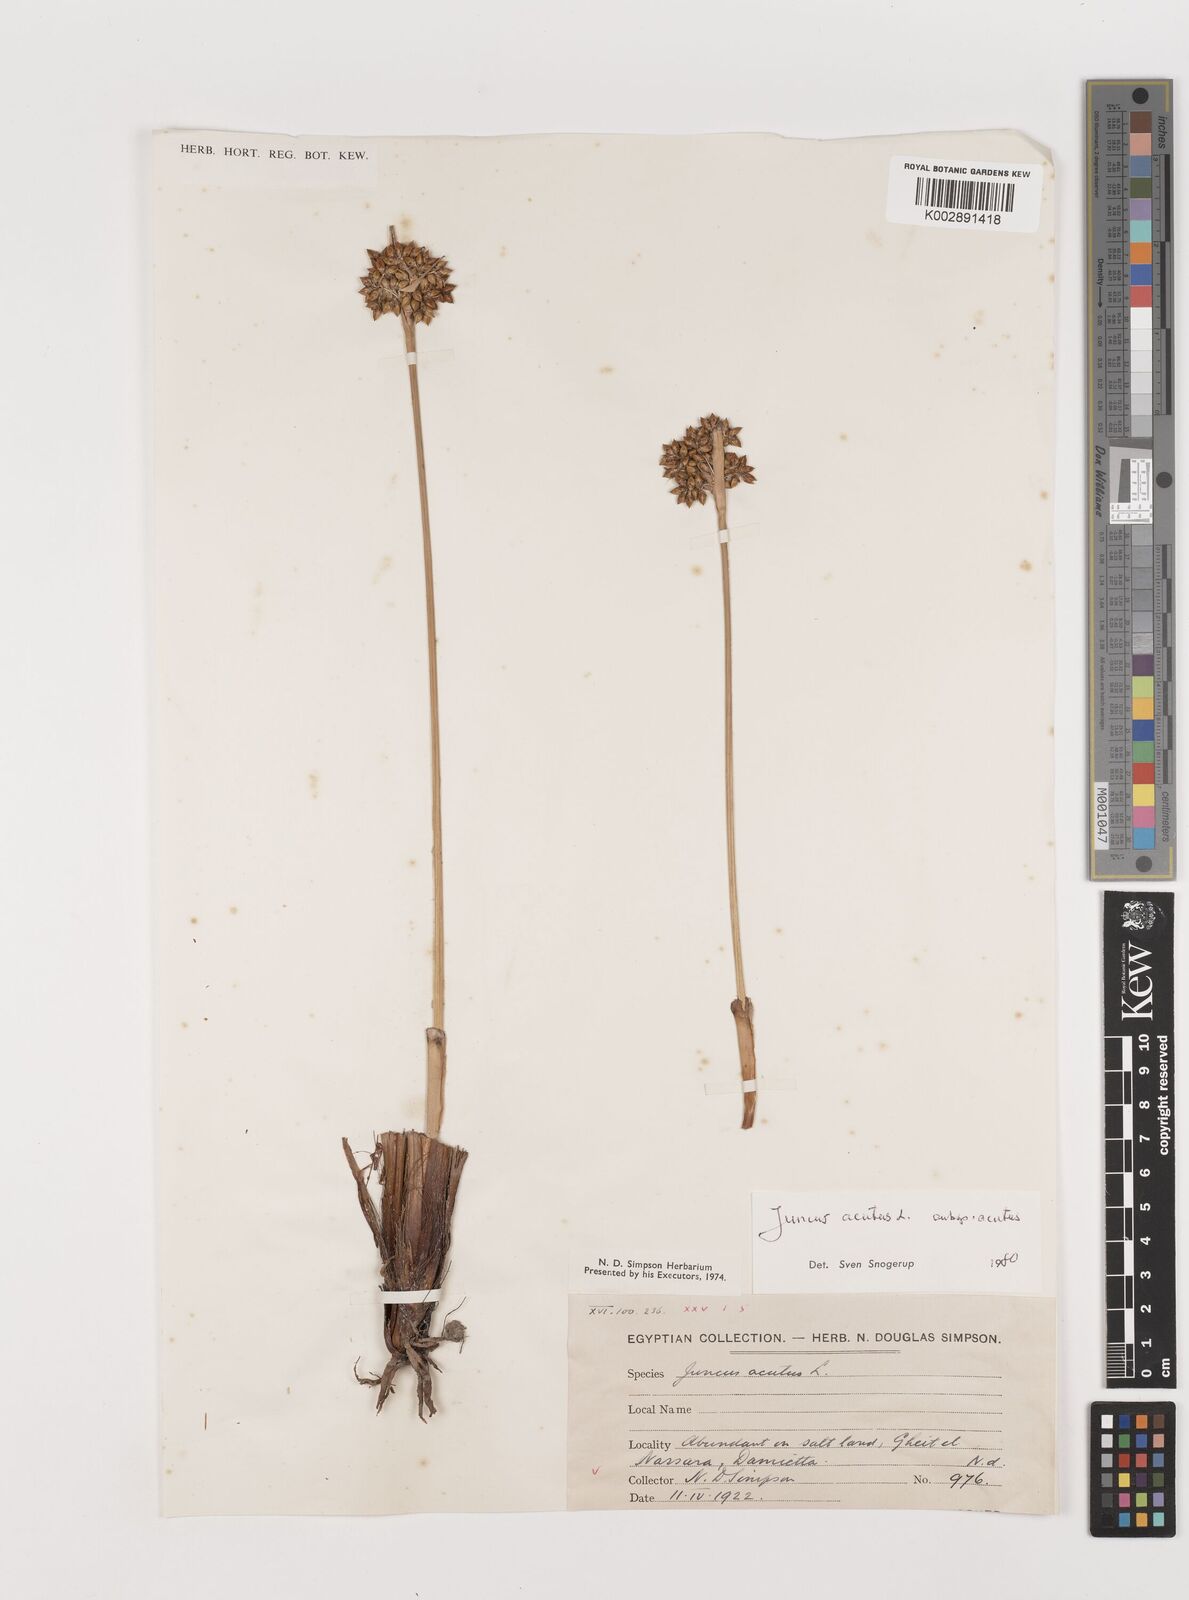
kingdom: Plantae
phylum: Tracheophyta
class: Liliopsida
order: Poales
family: Juncaceae
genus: Juncus
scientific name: Juncus acutus
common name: Sharp rush
